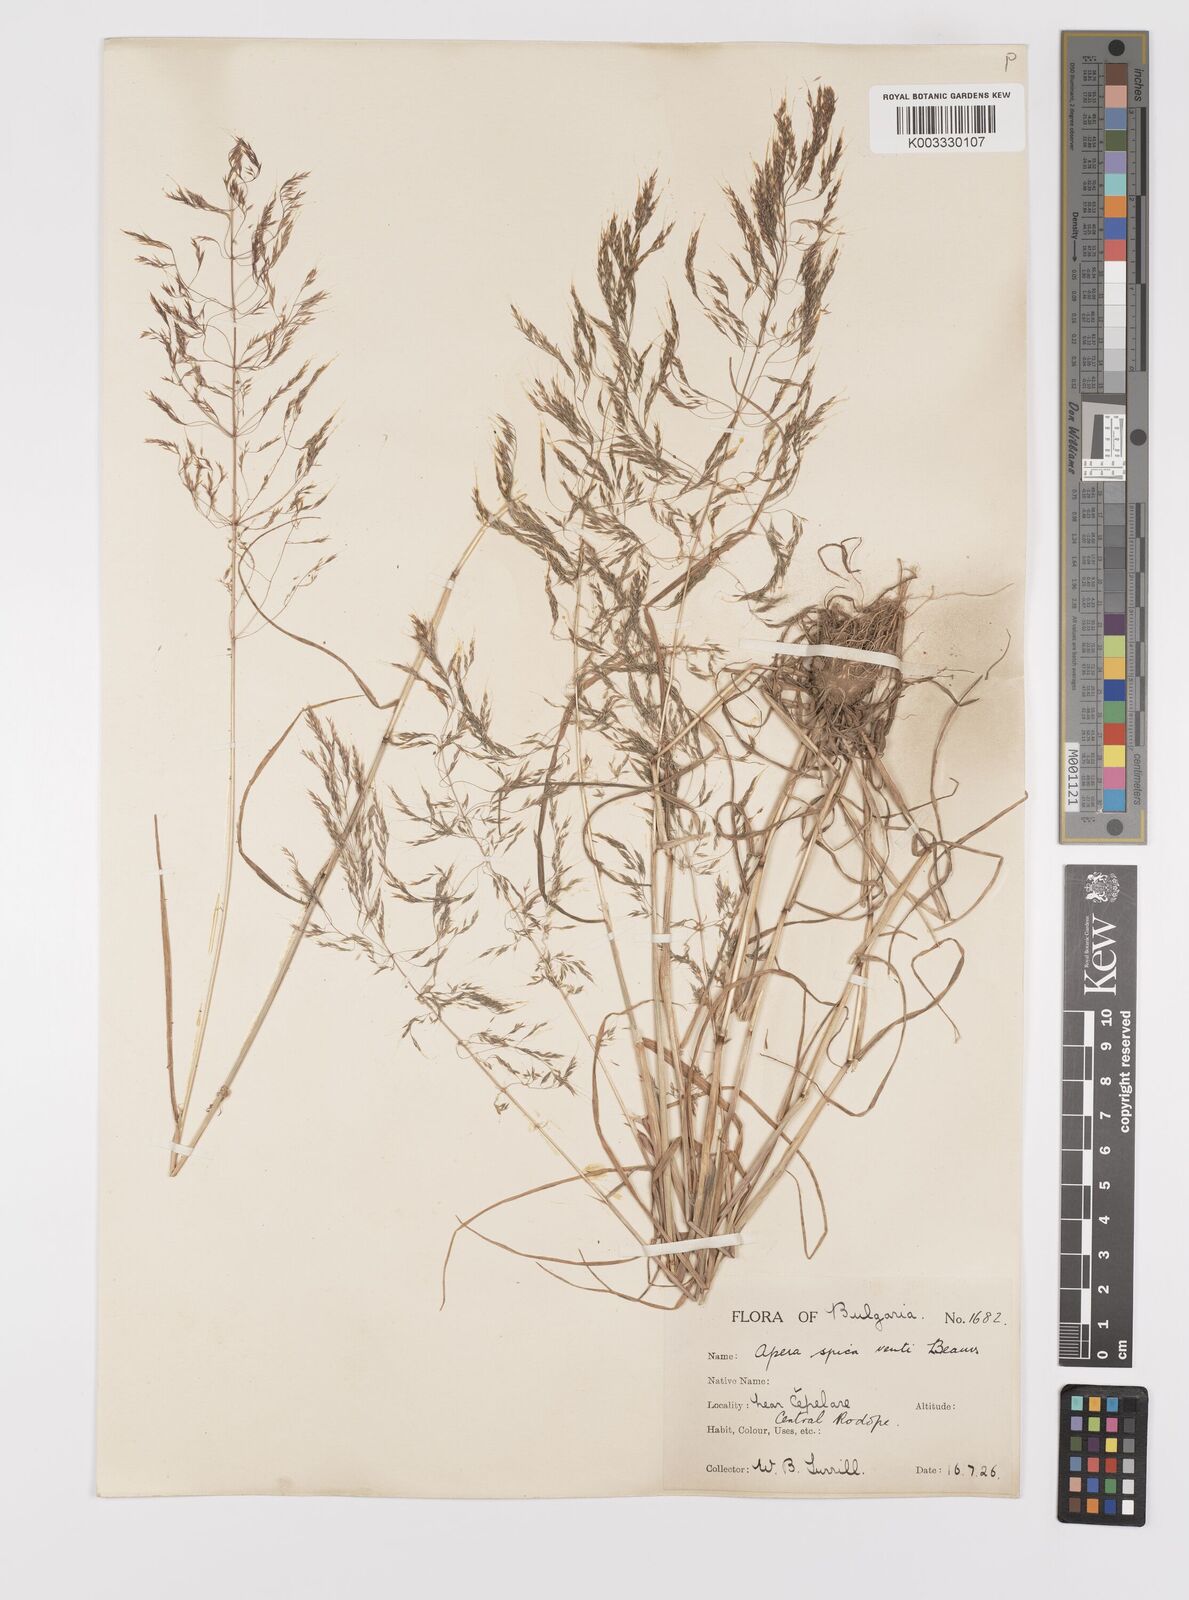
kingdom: Plantae
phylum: Tracheophyta
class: Liliopsida
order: Poales
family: Poaceae
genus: Apera
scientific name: Apera spica-venti
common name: Loose silky-bent
